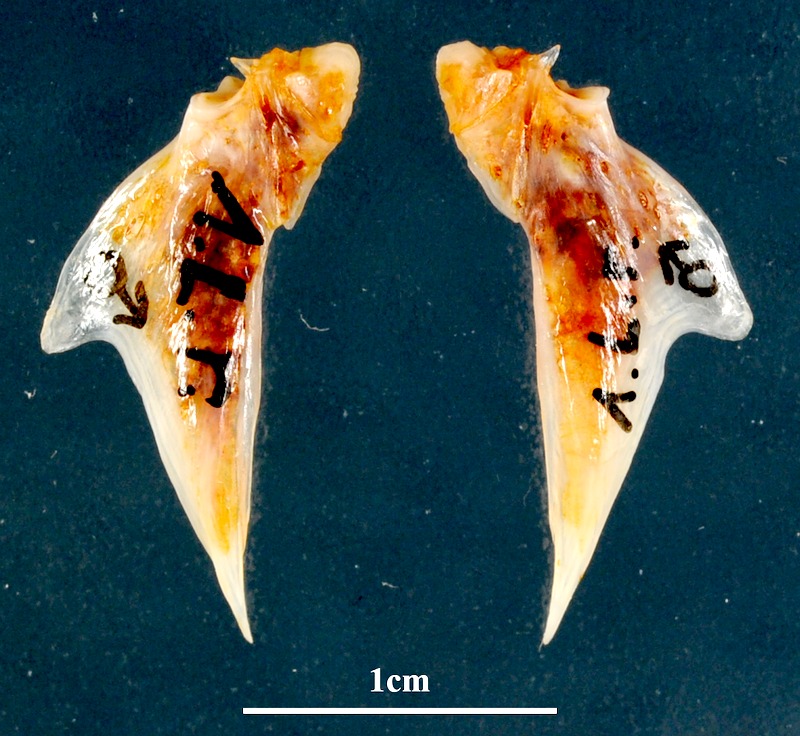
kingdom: Animalia
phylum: Chordata
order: Mugiliformes
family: Mugilidae
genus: Chelon
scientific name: Chelon ramada
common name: Thinlip grey mullet
